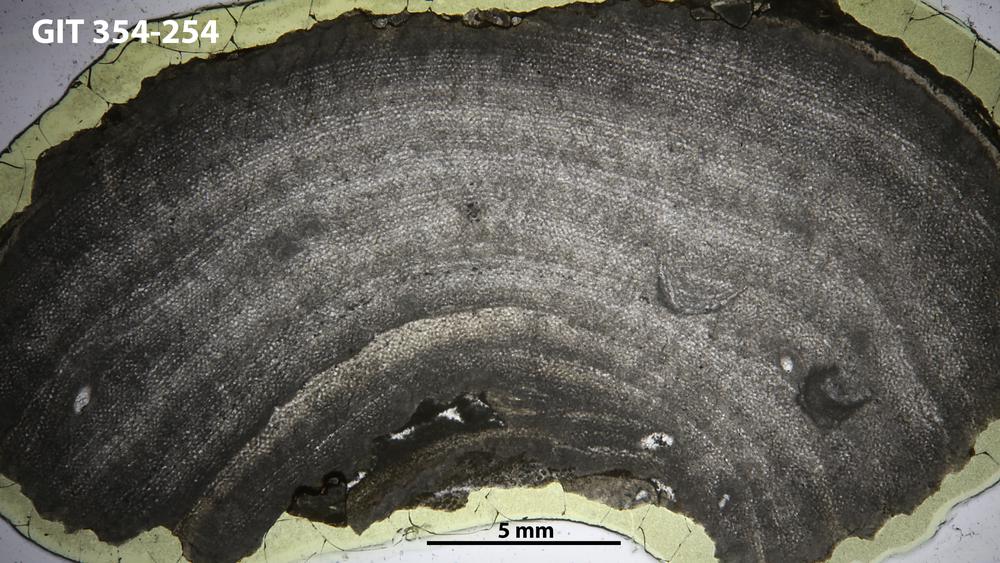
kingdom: Animalia
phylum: Porifera
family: Ecclimadictyidae
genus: Ecclimadictyon
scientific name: Ecclimadictyon Clathrodictyon microvesiculosum
